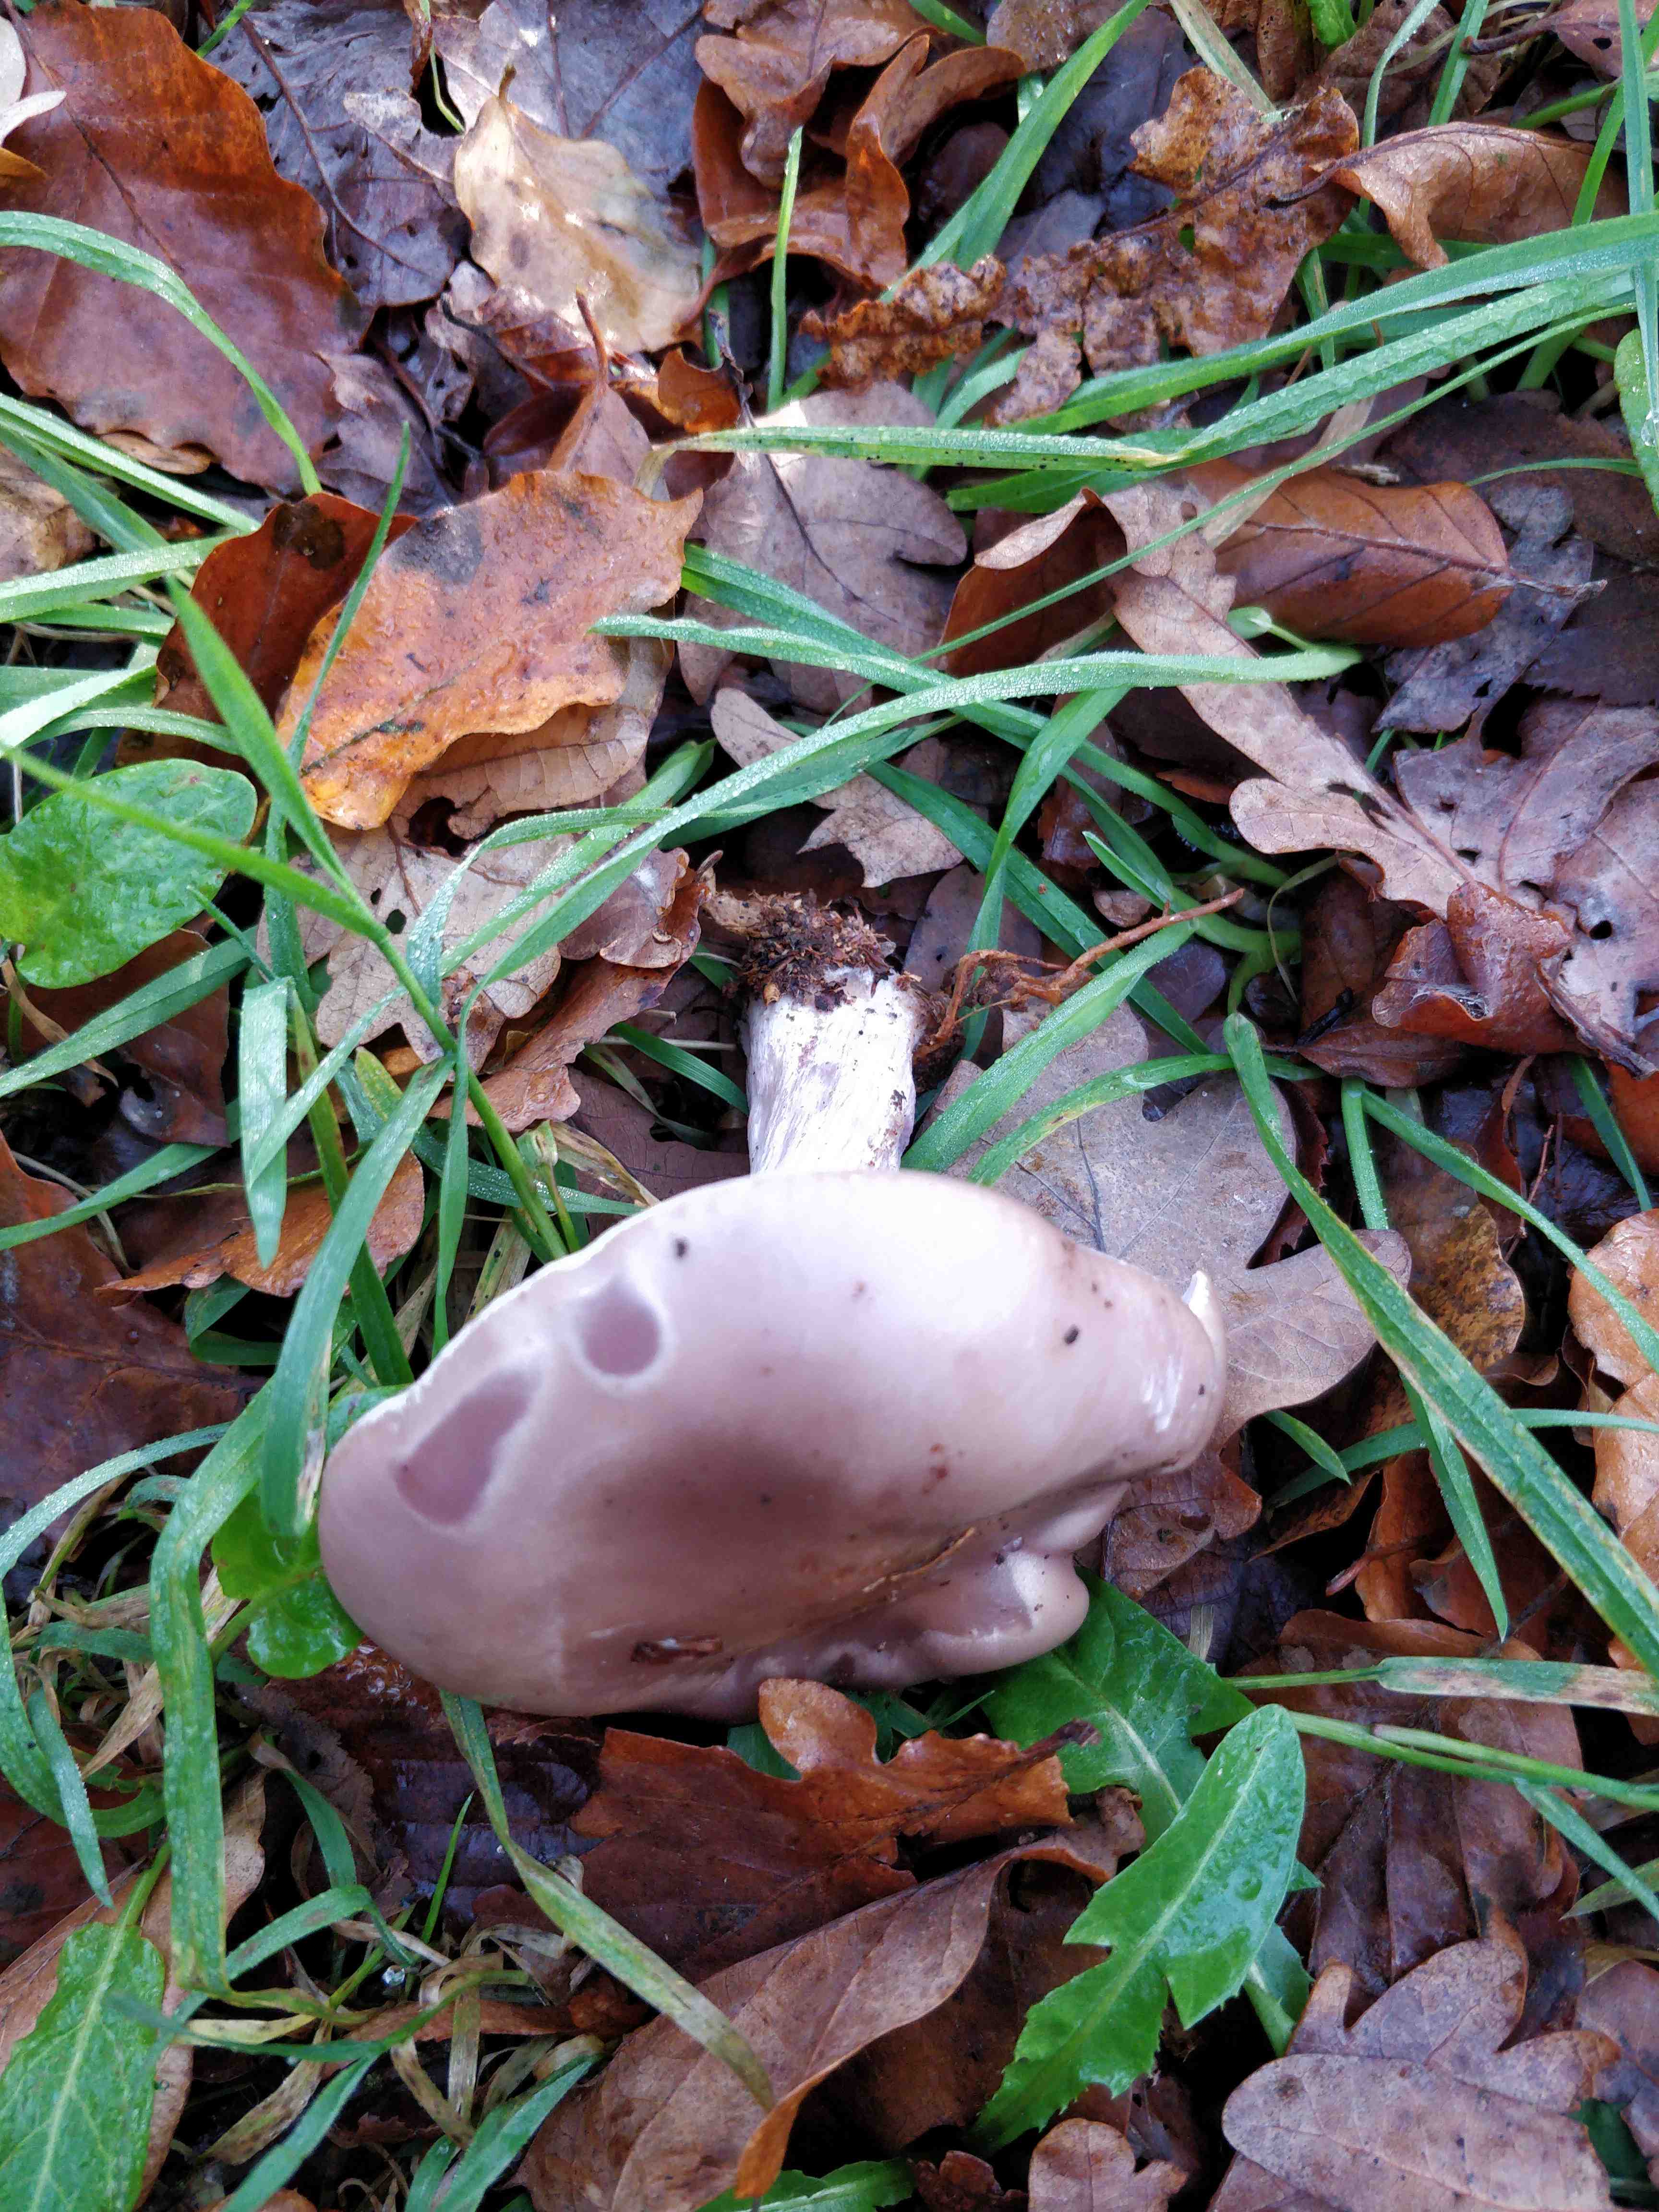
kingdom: Fungi
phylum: Basidiomycota
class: Agaricomycetes
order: Agaricales
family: Tricholomataceae
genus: Lepista
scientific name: Lepista nuda
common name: violet hekseringshat
